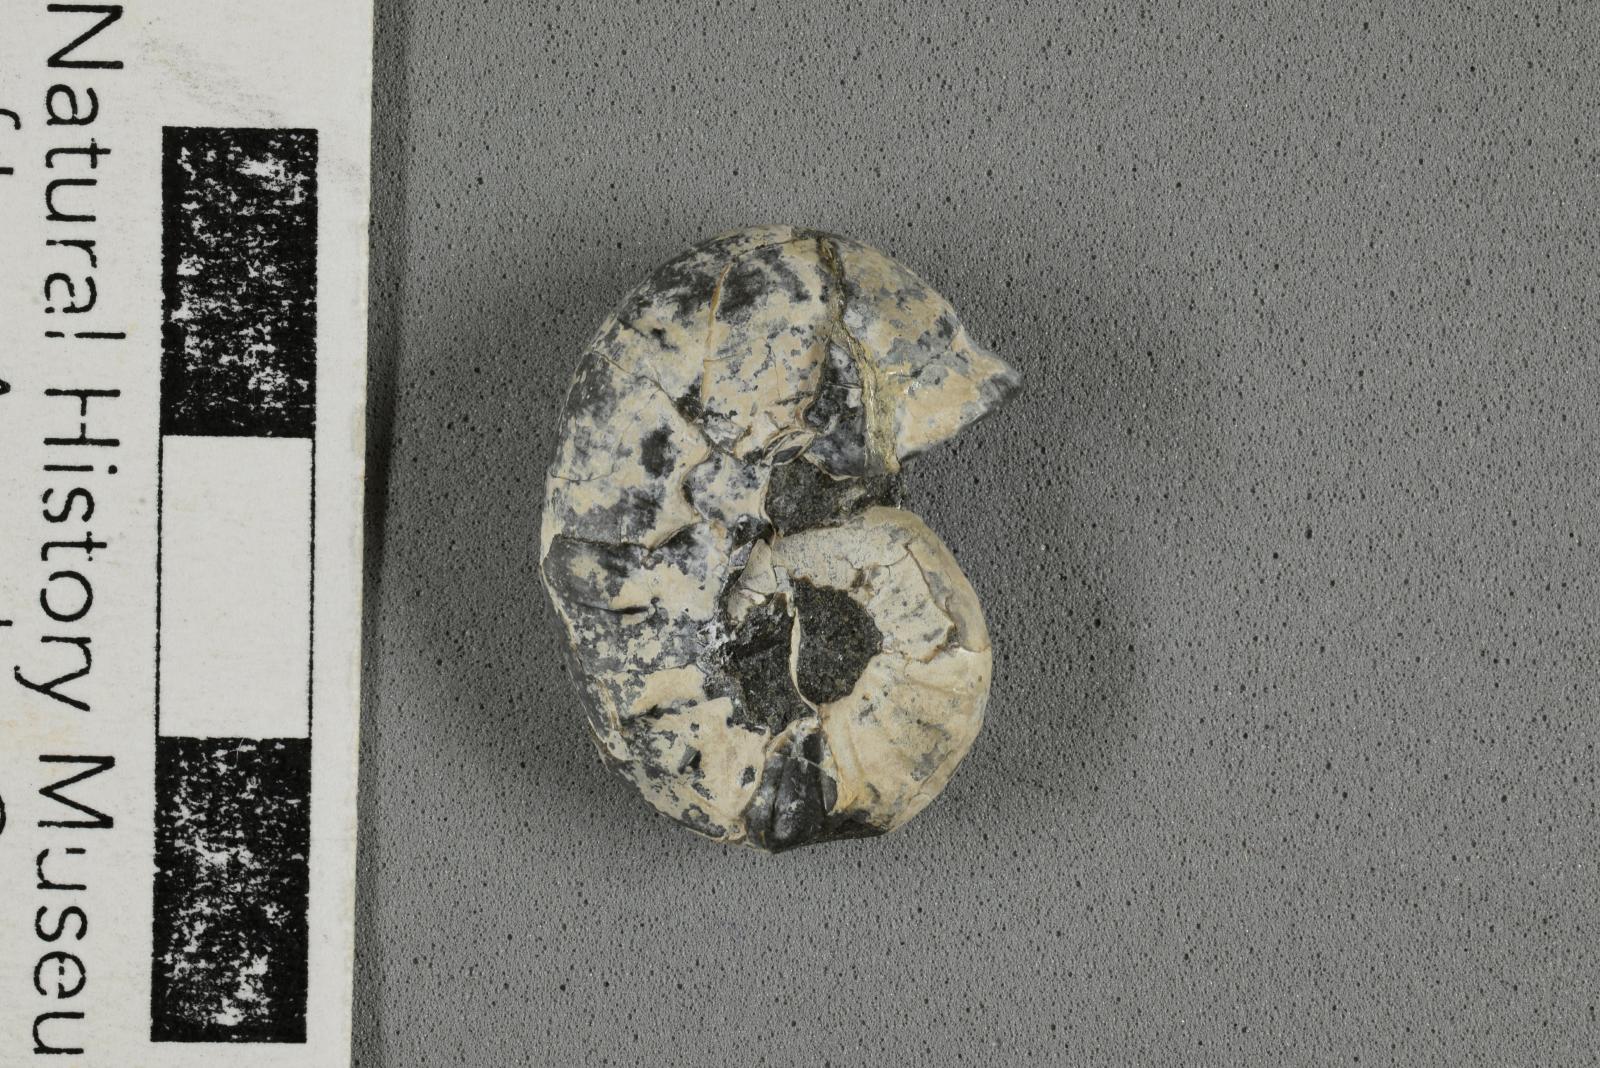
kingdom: Animalia
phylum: Mollusca
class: Cephalopoda
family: Scaphitidae
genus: Yezoites
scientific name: Yezoites puerculus
